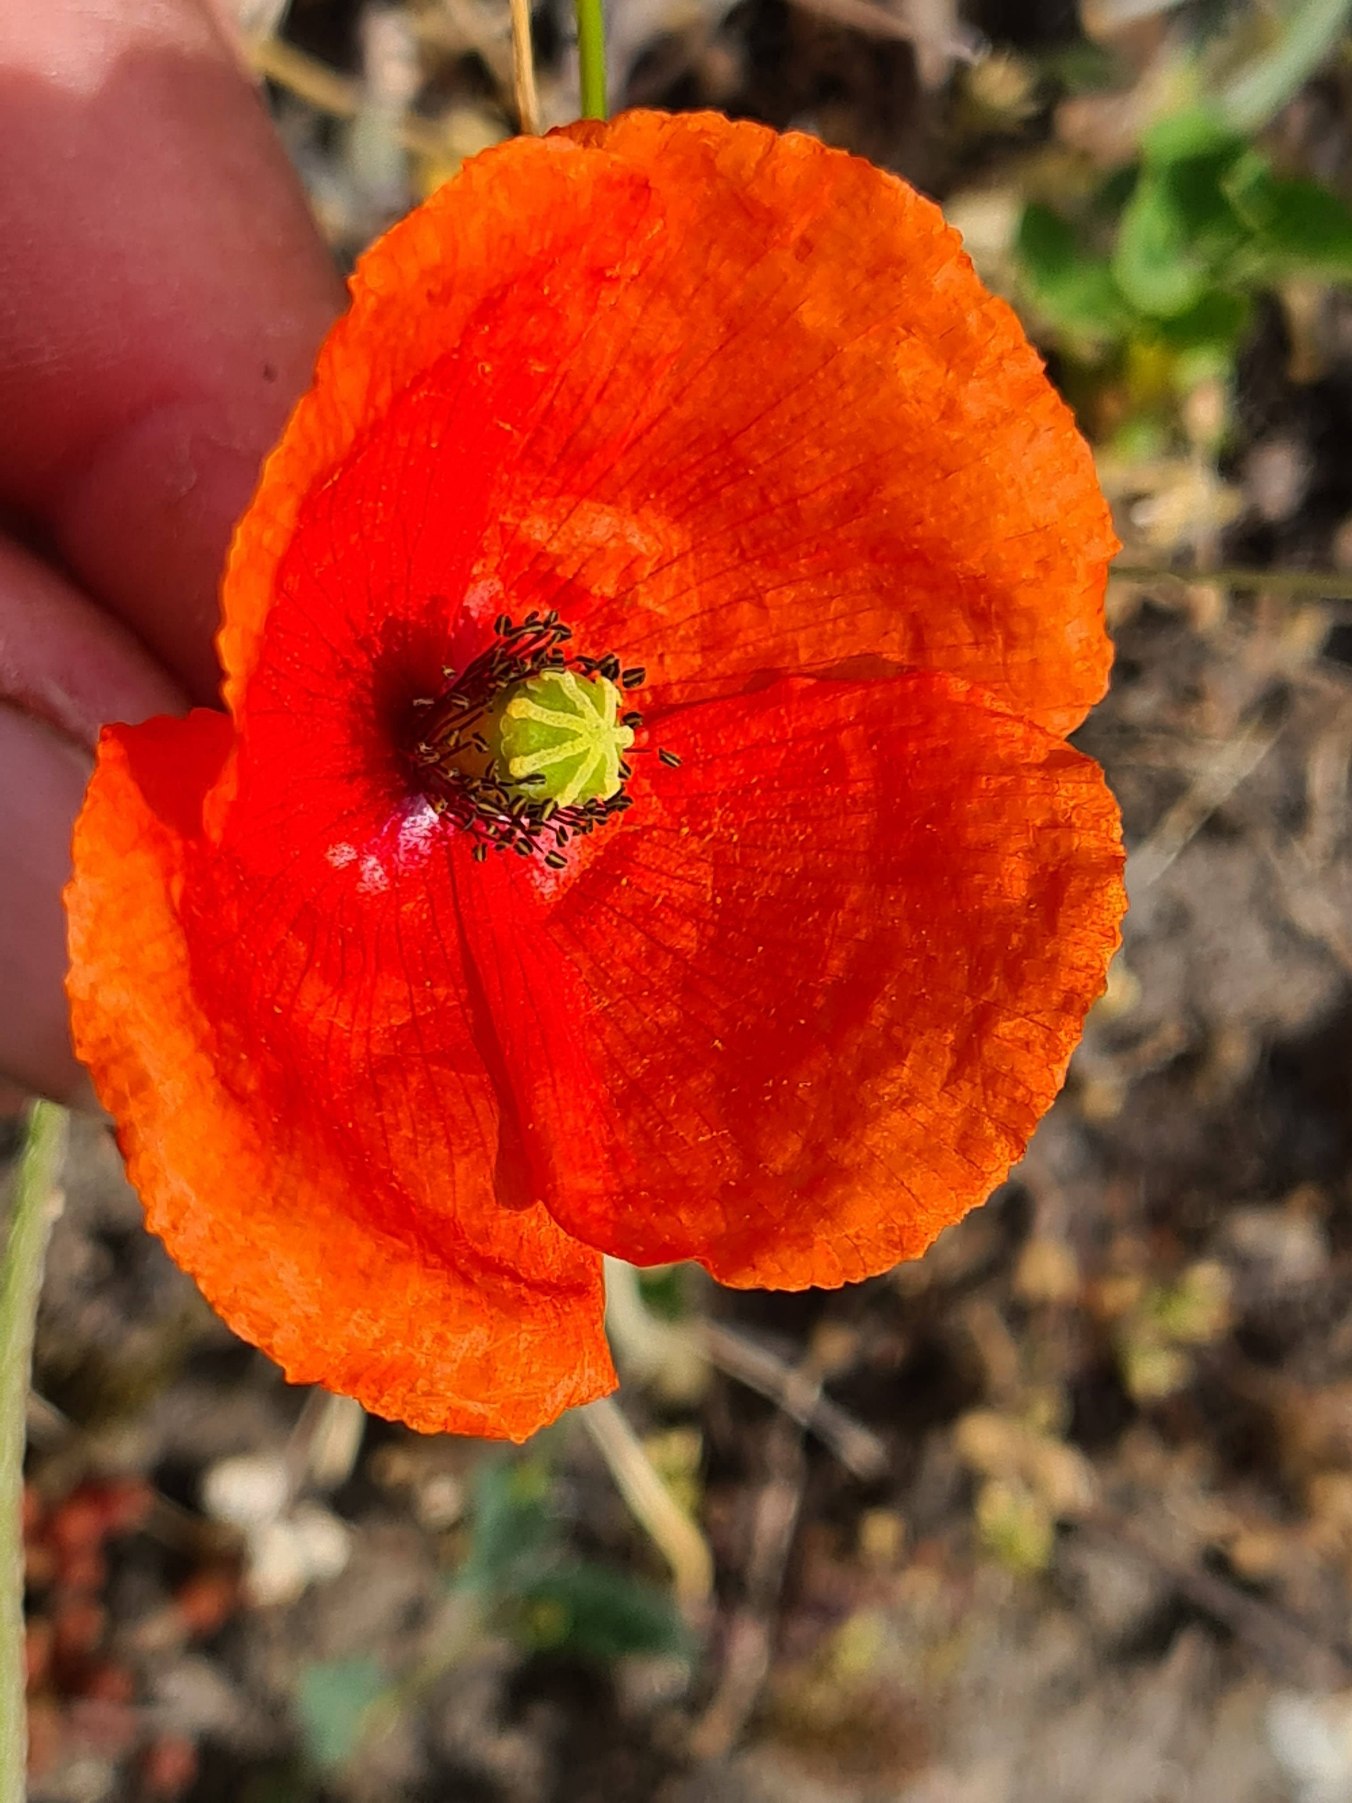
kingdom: Plantae
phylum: Tracheophyta
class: Magnoliopsida
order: Ranunculales
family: Papaveraceae
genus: Papaver
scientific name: Papaver dubium
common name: Gærde-valmue
